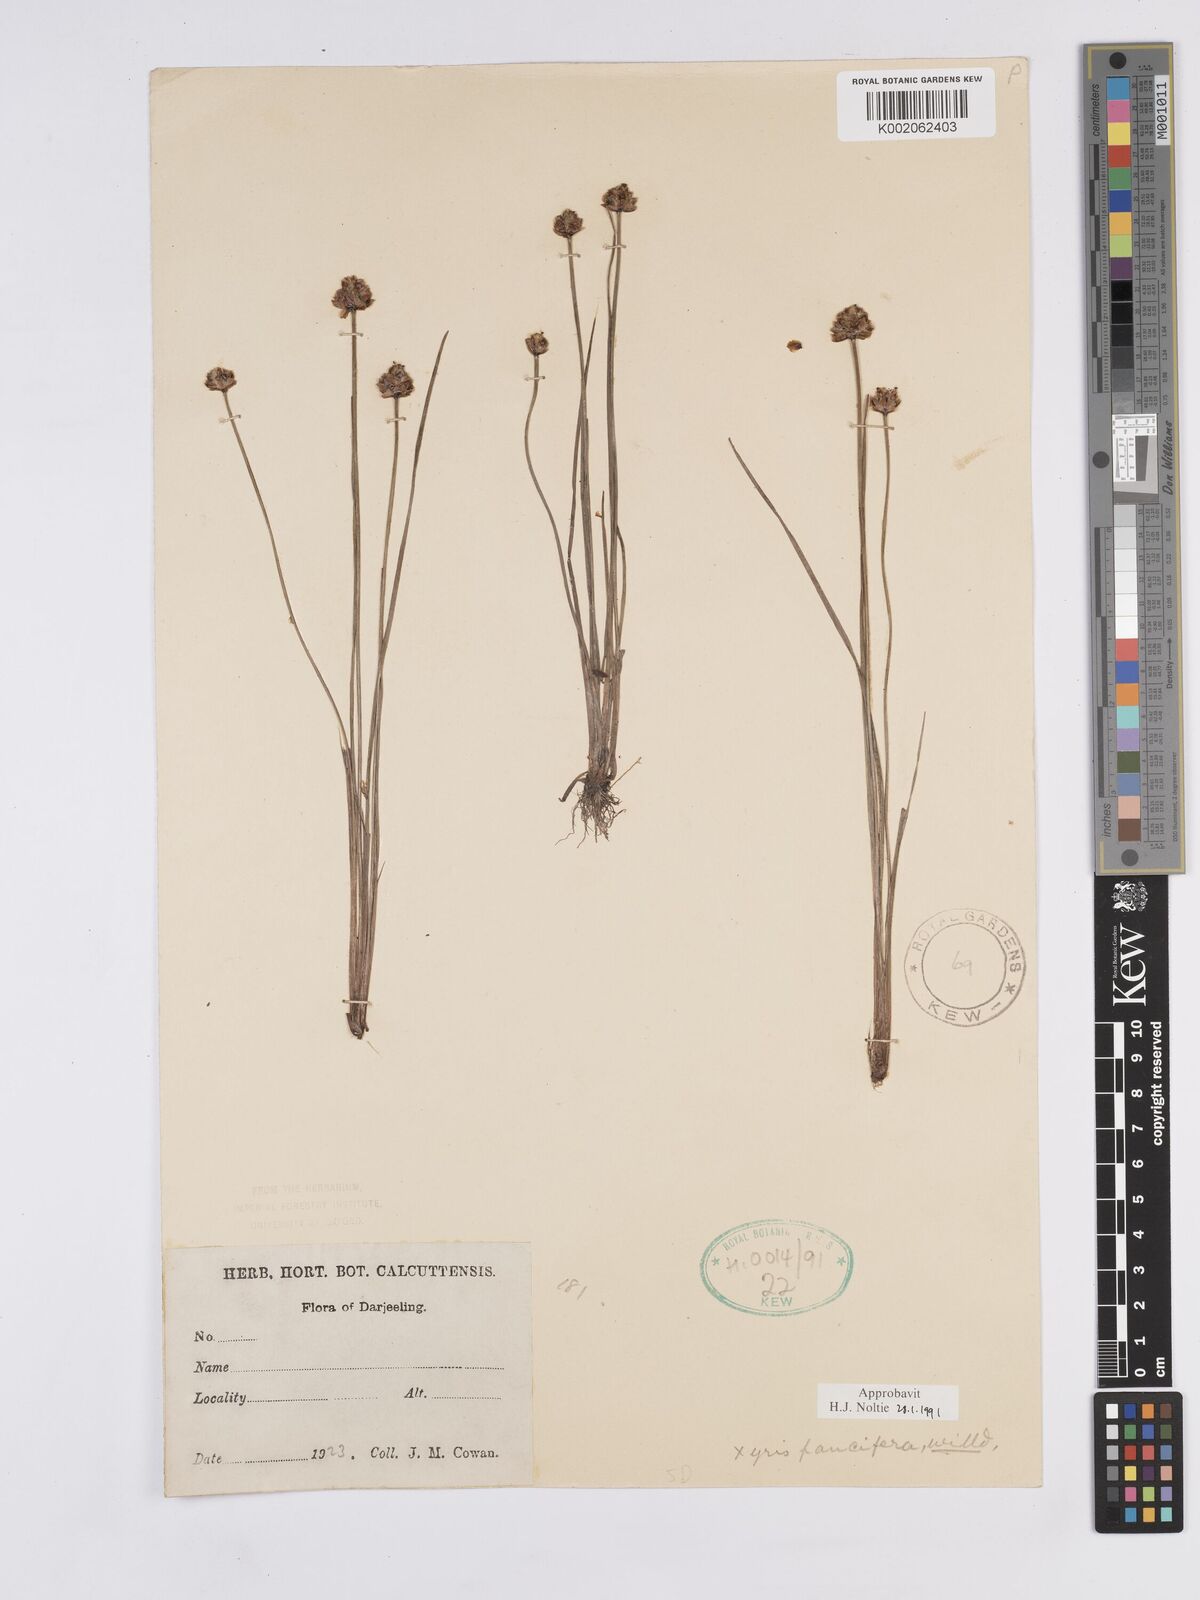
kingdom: Plantae
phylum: Tracheophyta
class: Liliopsida
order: Poales
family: Xyridaceae
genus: Xyris
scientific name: Xyris pauciflora
